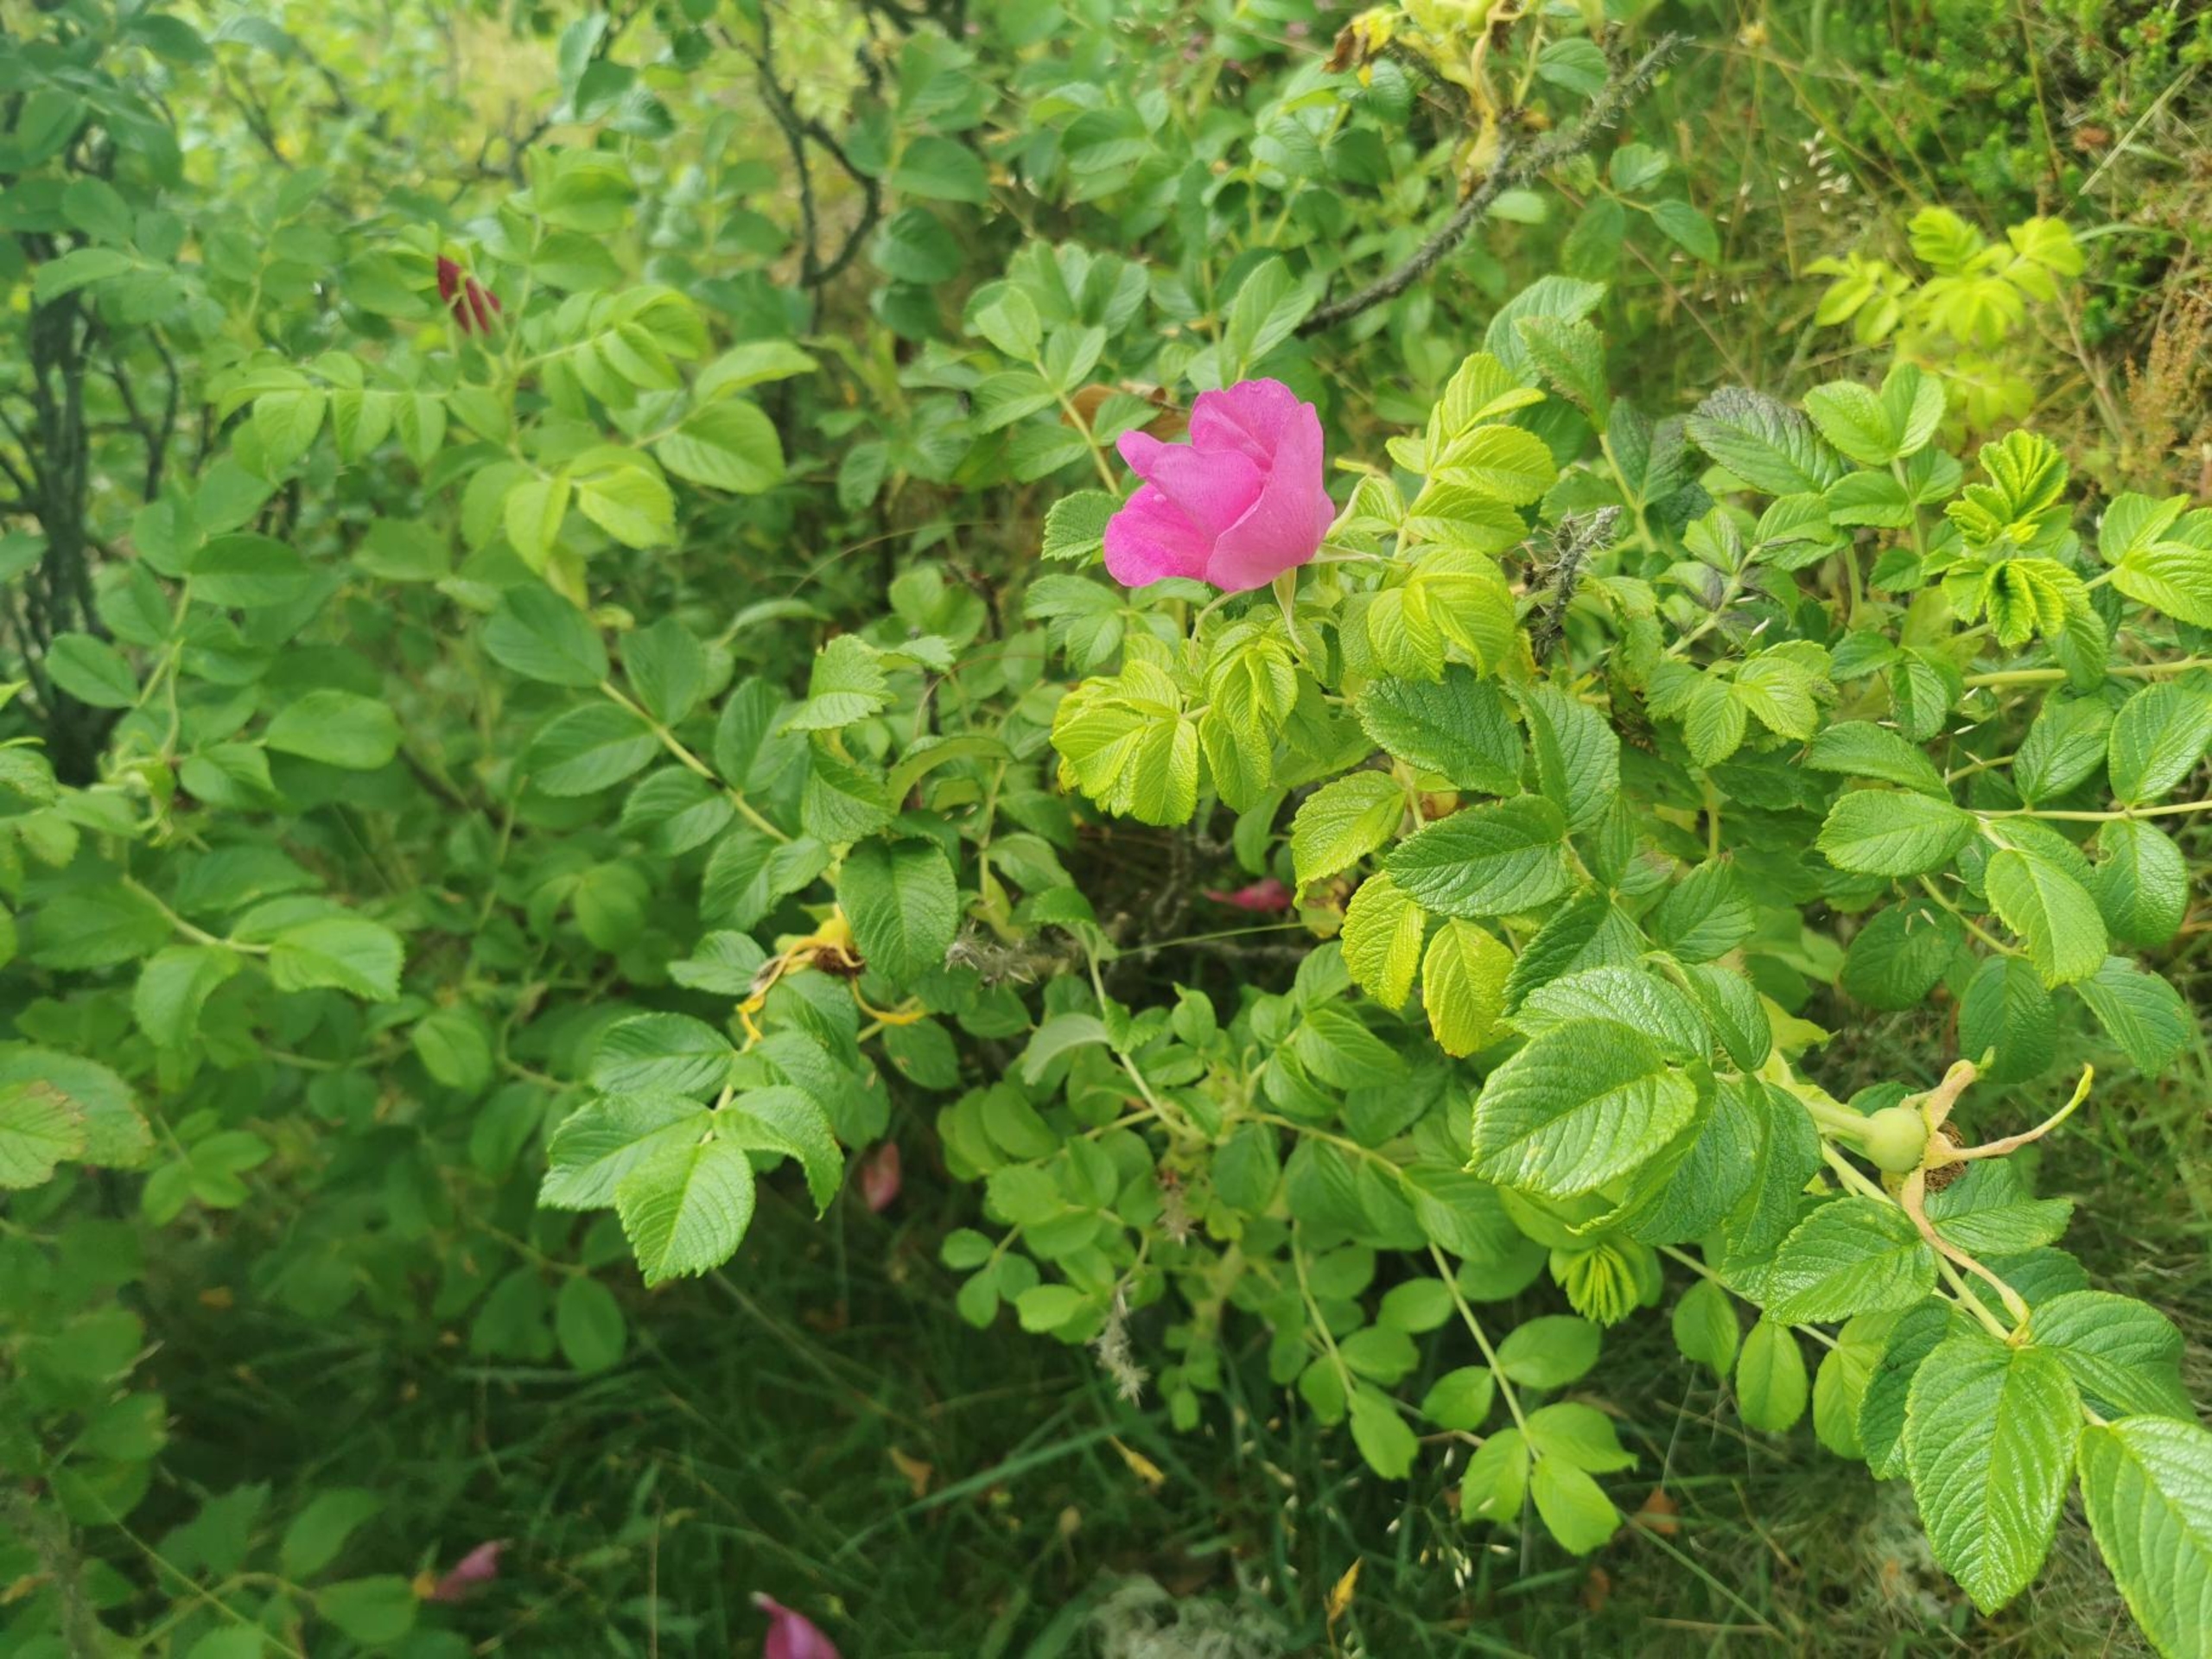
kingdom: Plantae
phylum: Tracheophyta
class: Magnoliopsida
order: Rosales
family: Rosaceae
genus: Rosa
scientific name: Rosa rugosa
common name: Rynket rose
